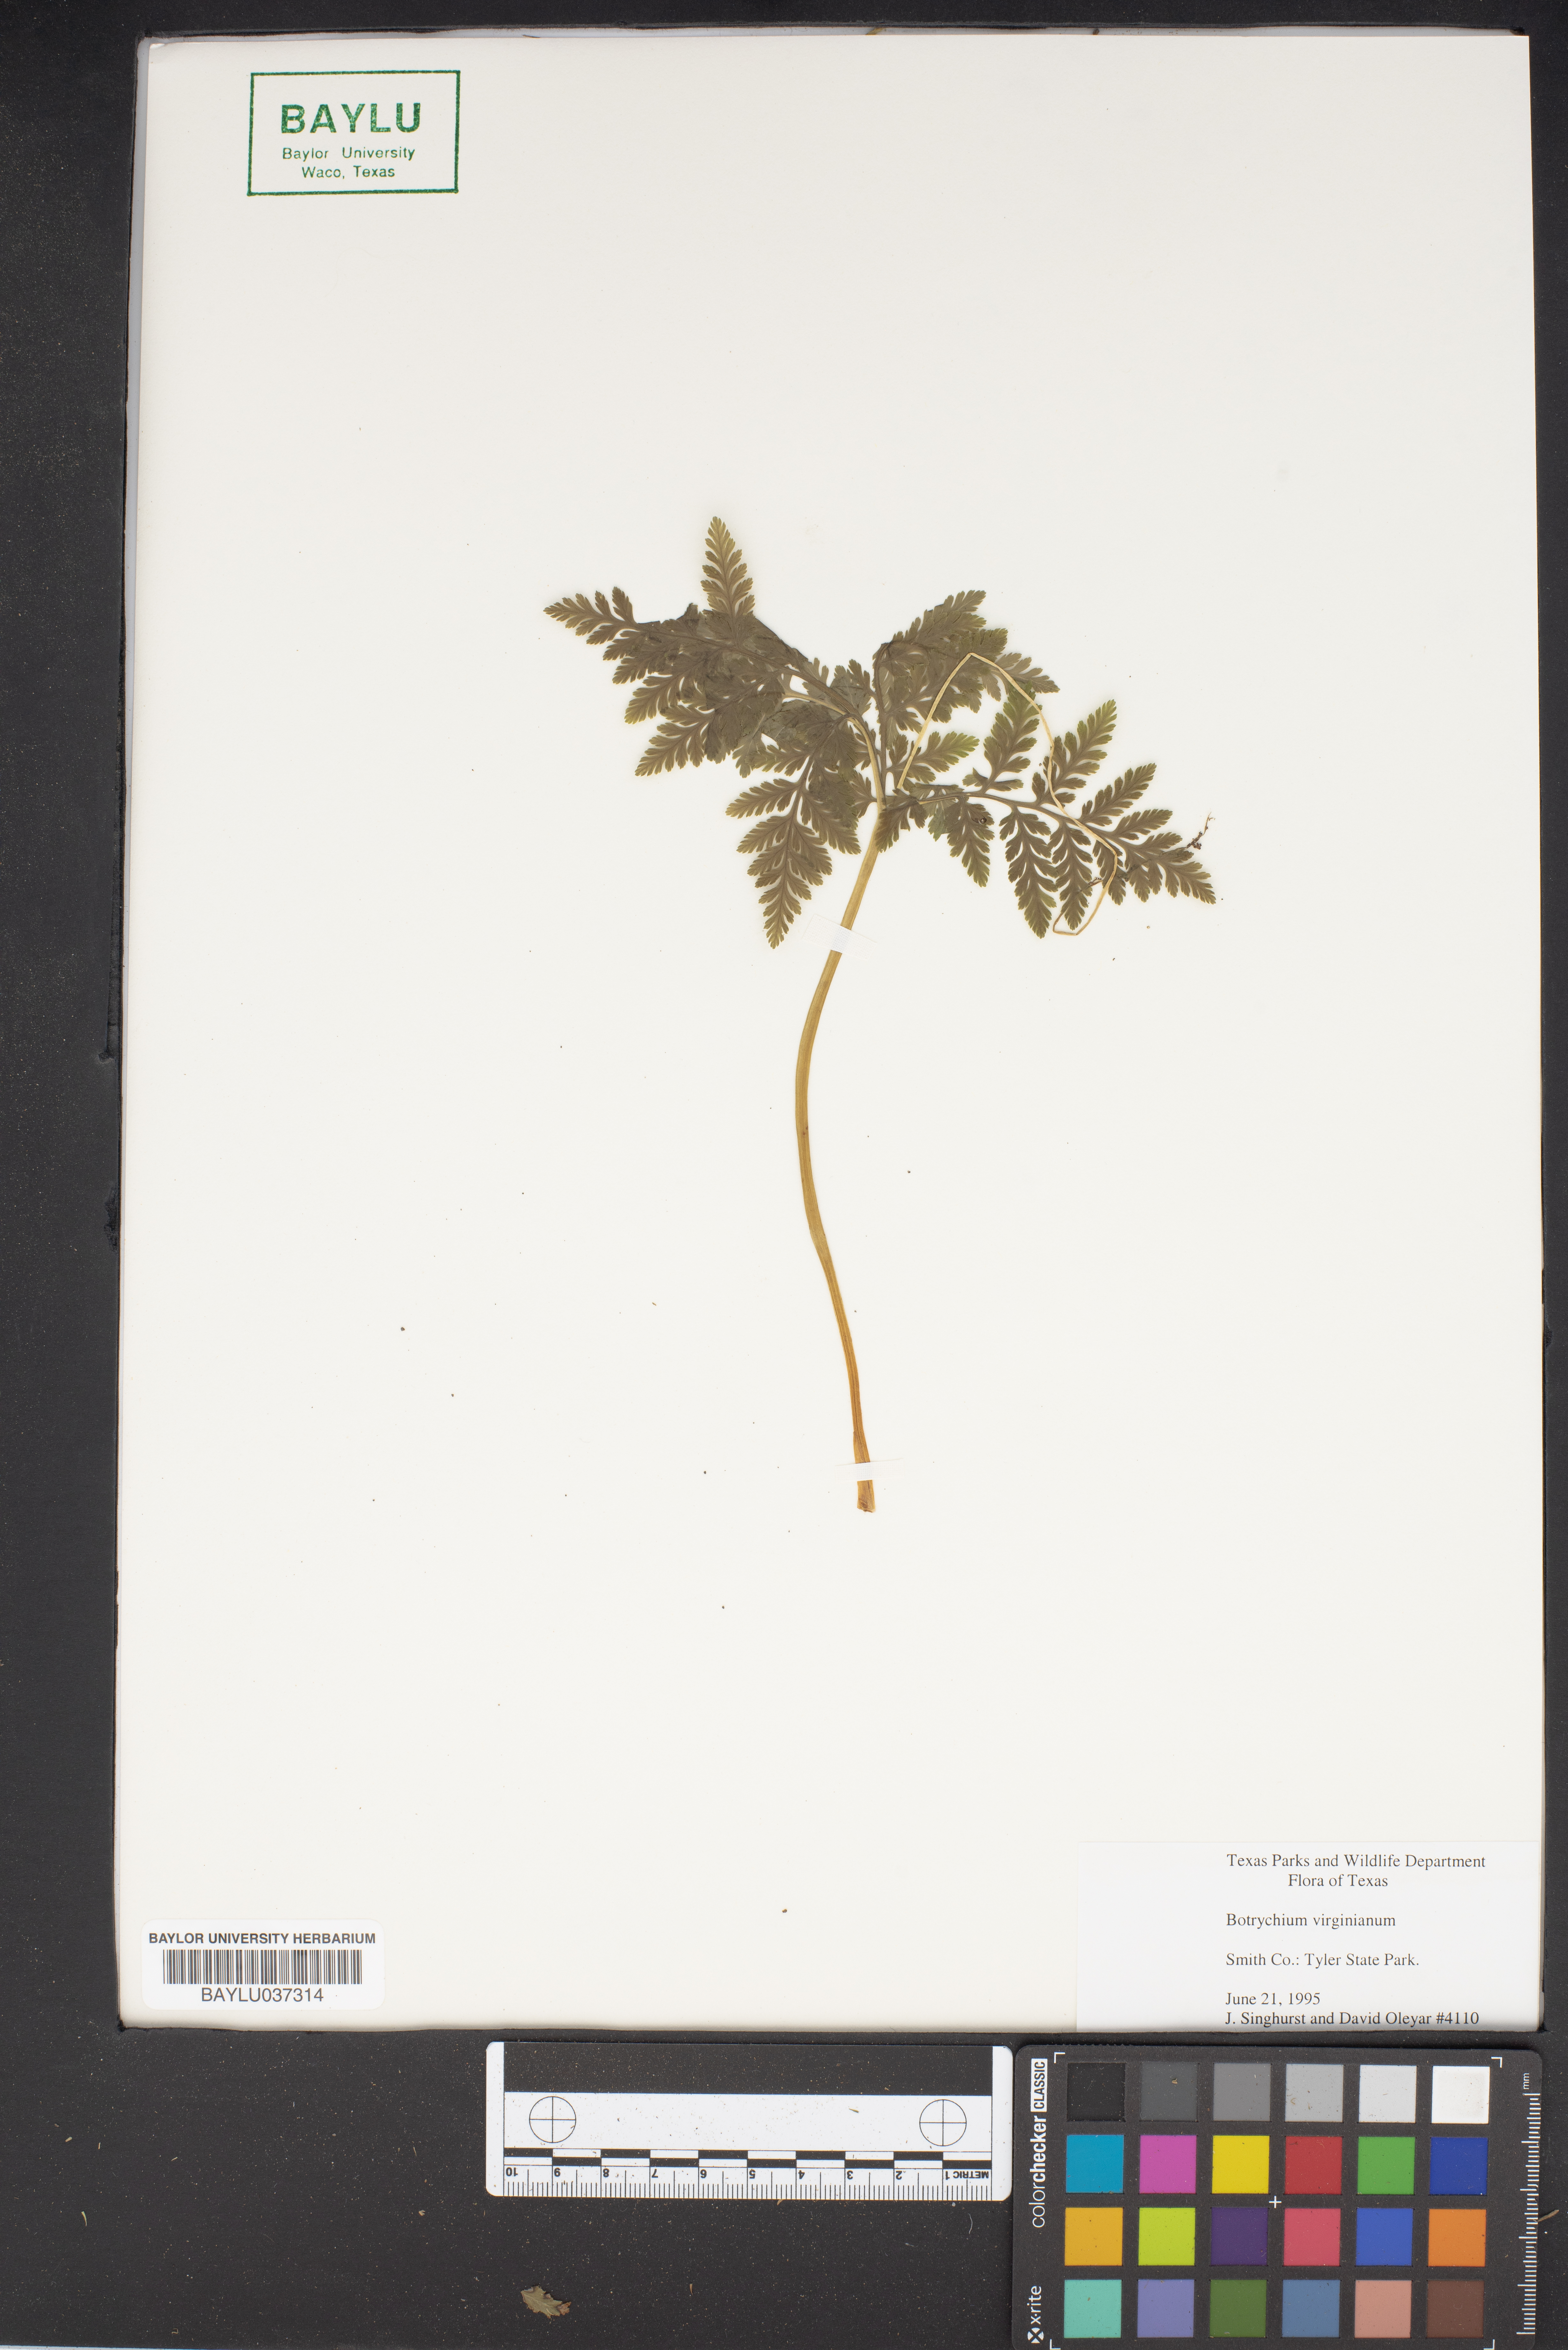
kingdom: Plantae
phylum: Tracheophyta
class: Polypodiopsida
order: Ophioglossales
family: Ophioglossaceae
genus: Botrypus
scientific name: Botrypus virginianus
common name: Common grapefern
